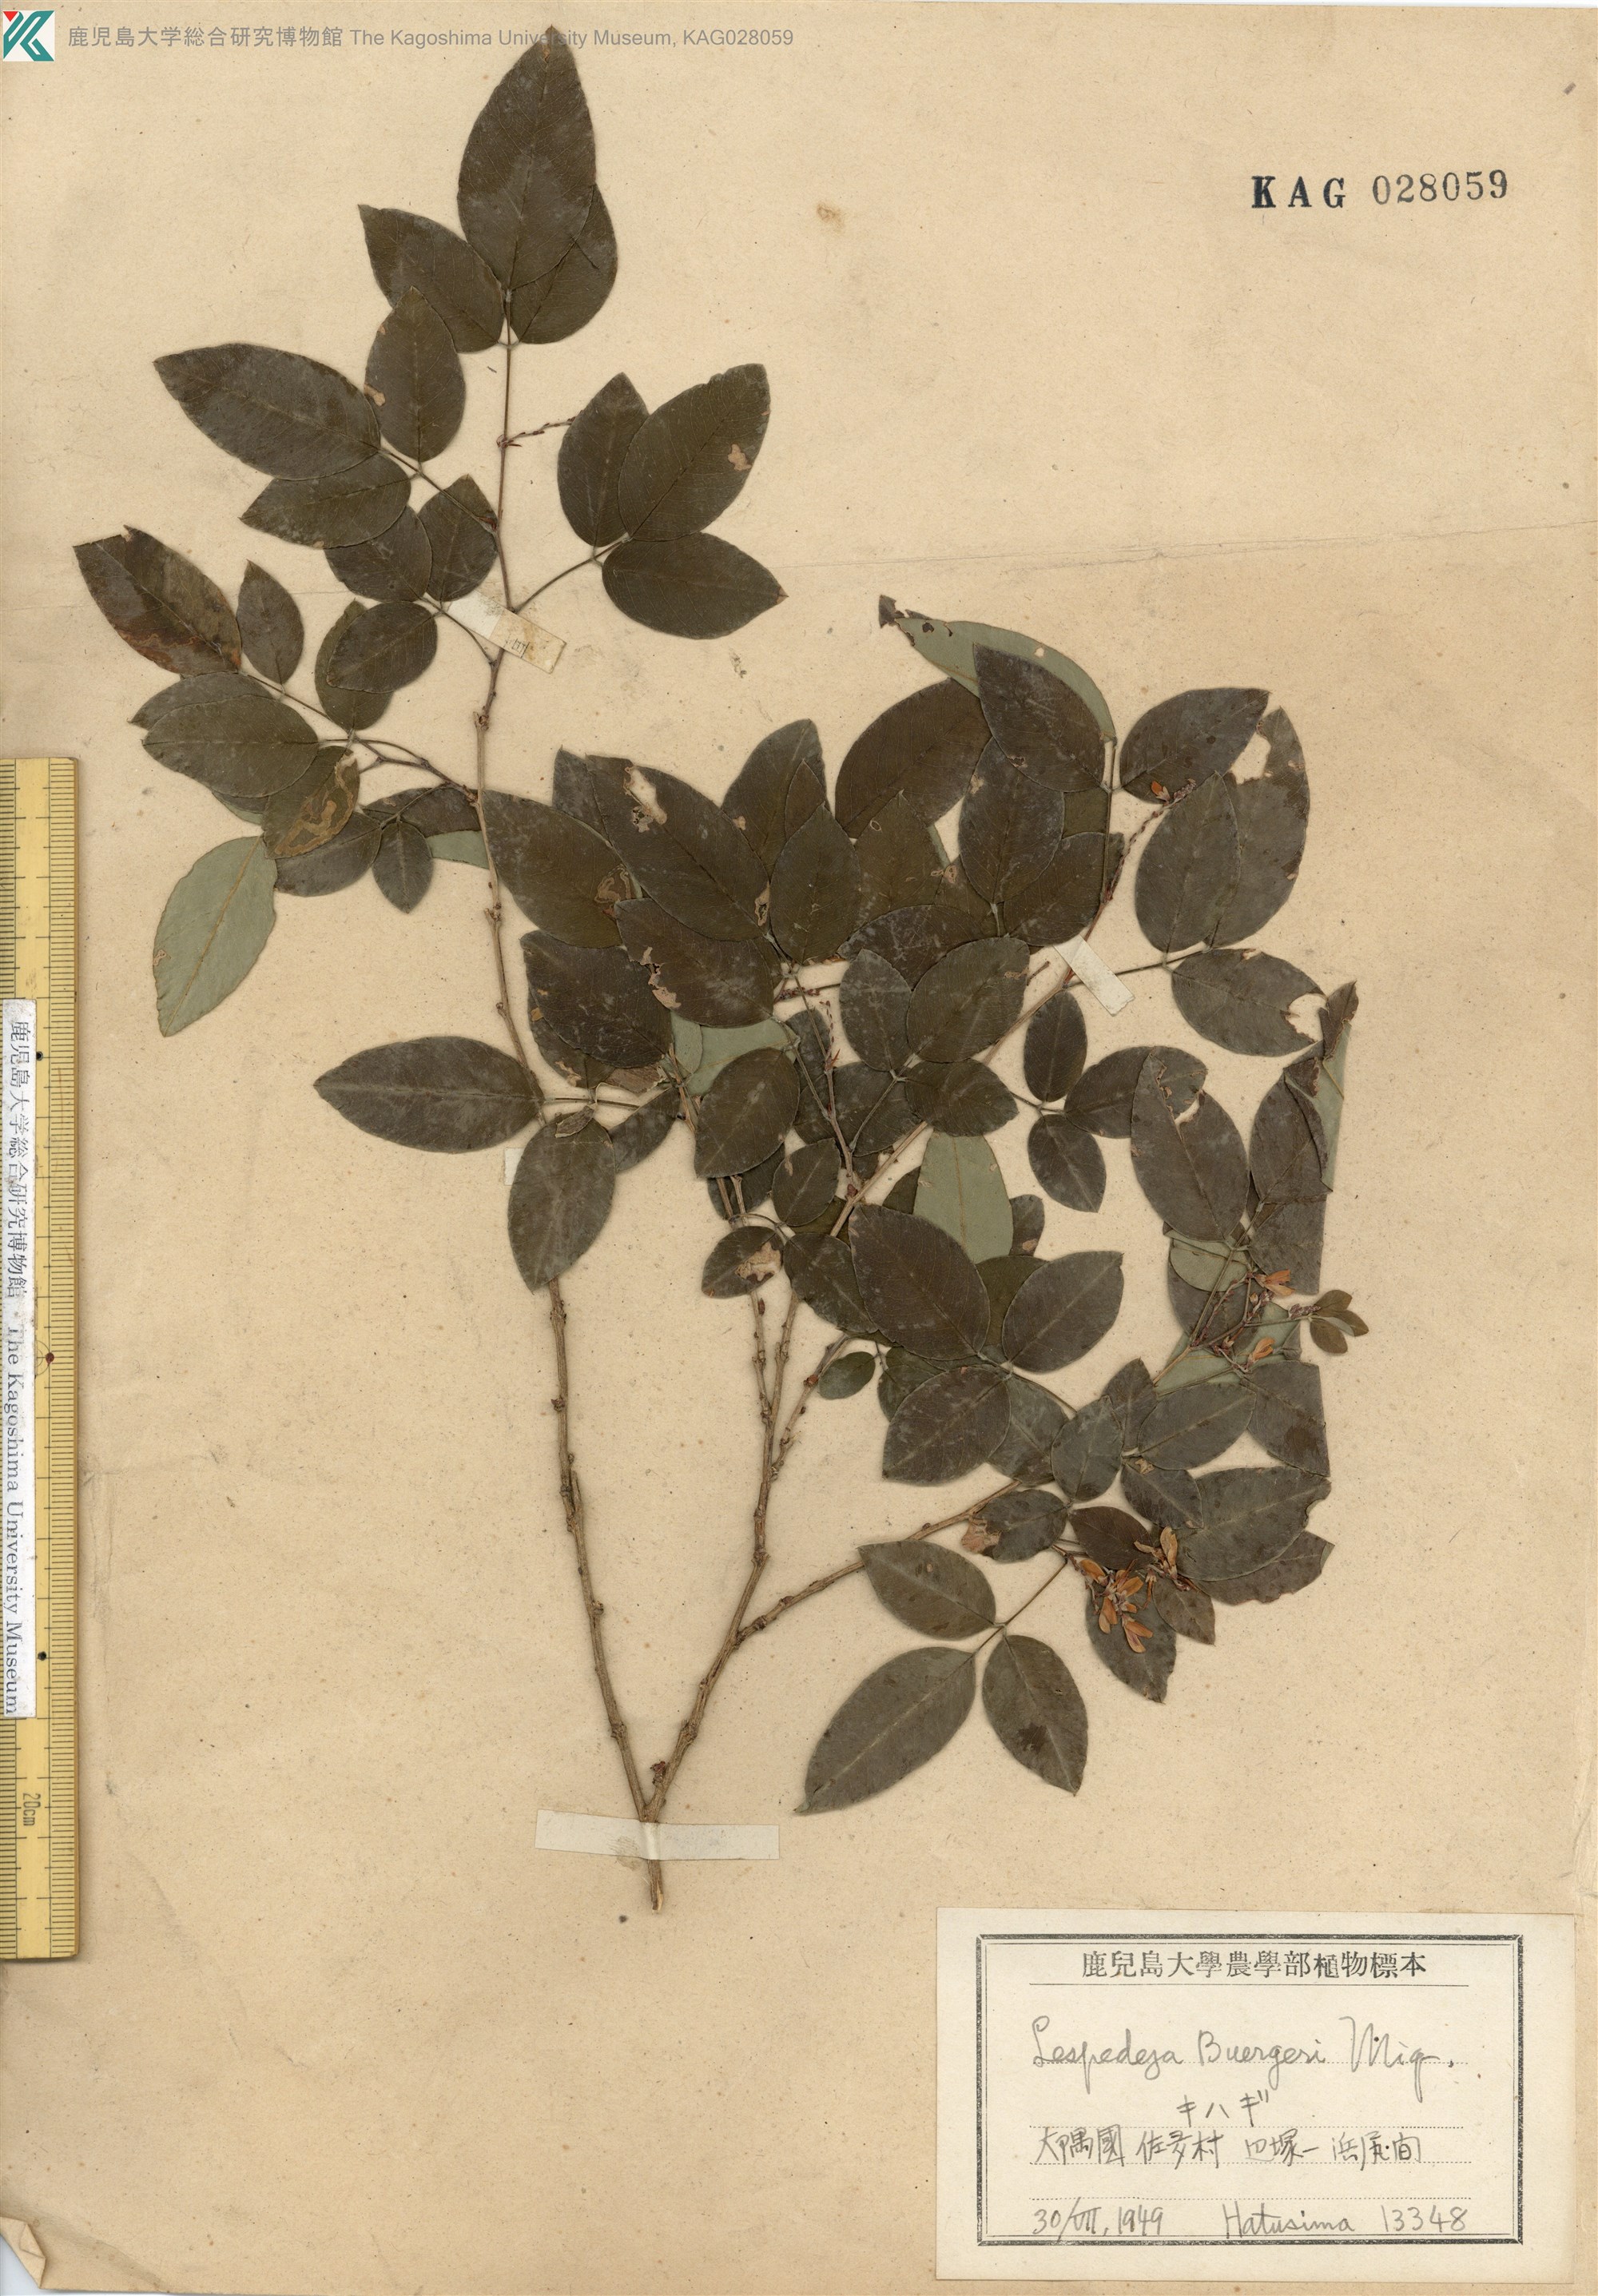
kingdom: Plantae
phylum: Tracheophyta
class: Magnoliopsida
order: Fabales
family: Fabaceae
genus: Lespedeza
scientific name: Lespedeza buergeri
